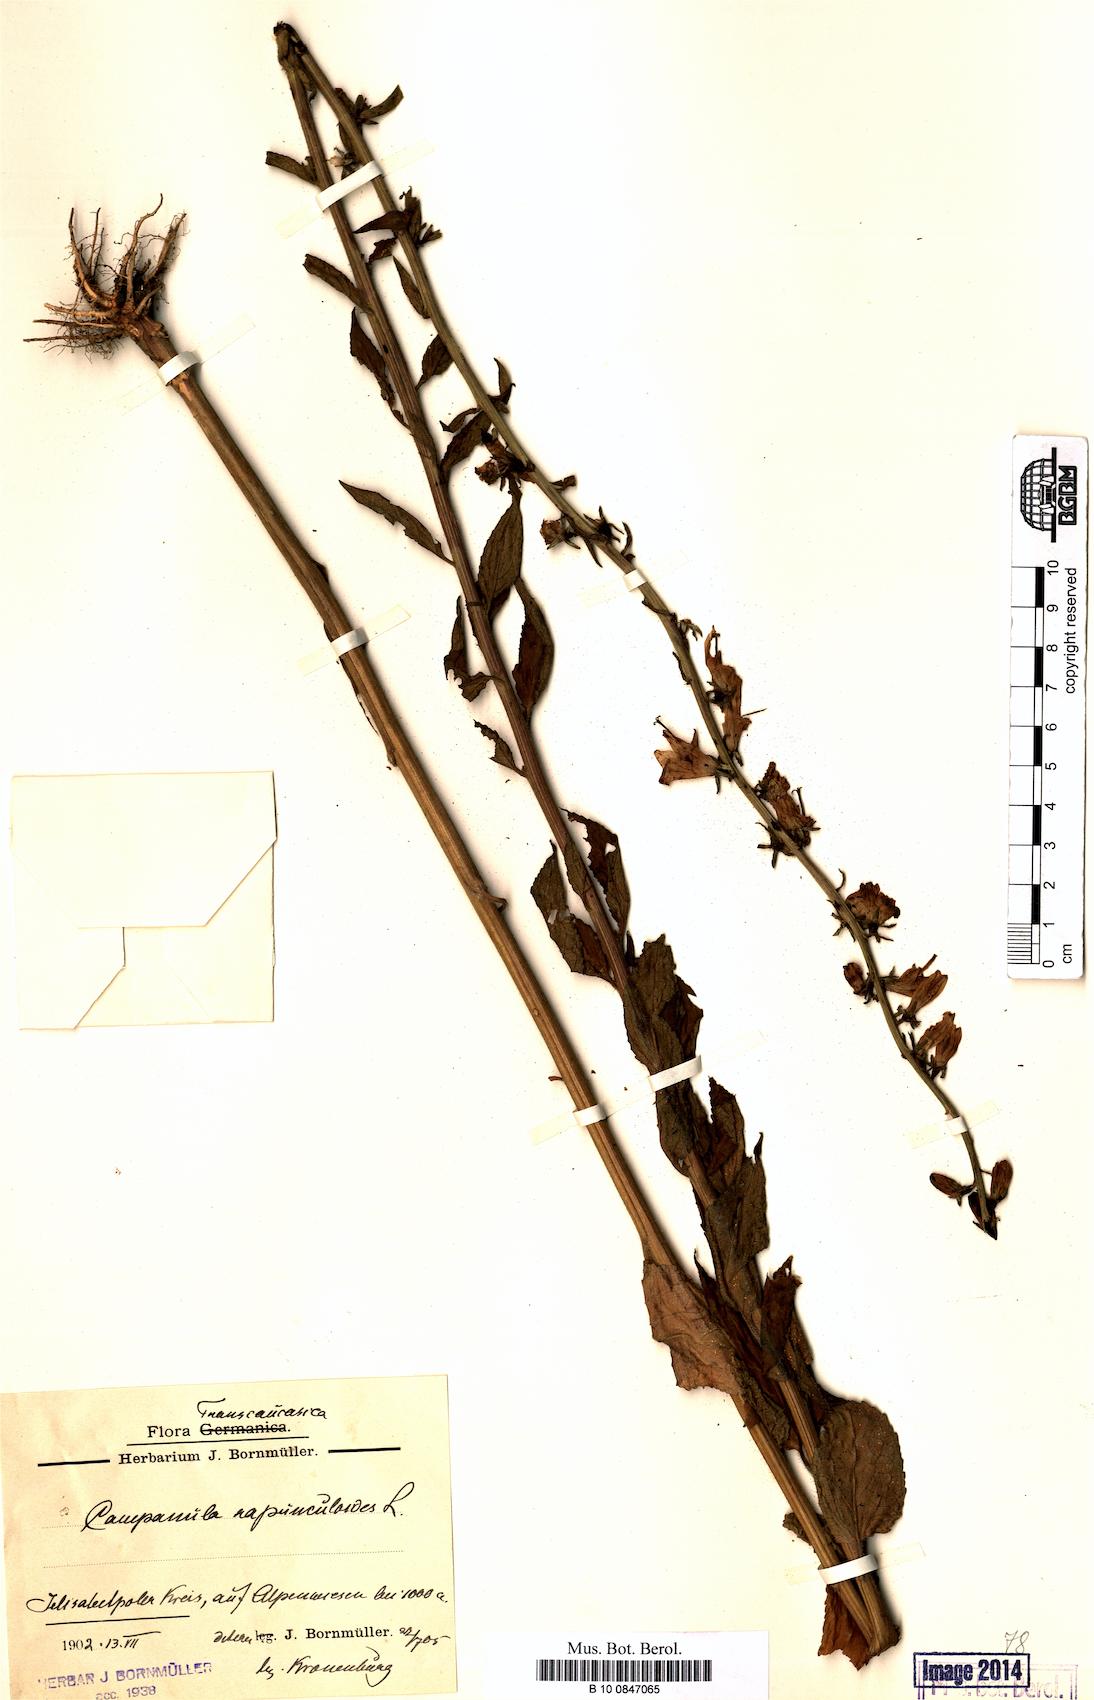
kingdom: Plantae
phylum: Tracheophyta
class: Magnoliopsida
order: Asterales
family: Campanulaceae
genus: Campanula
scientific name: Campanula rapunculoides
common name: Creeping bellflower
